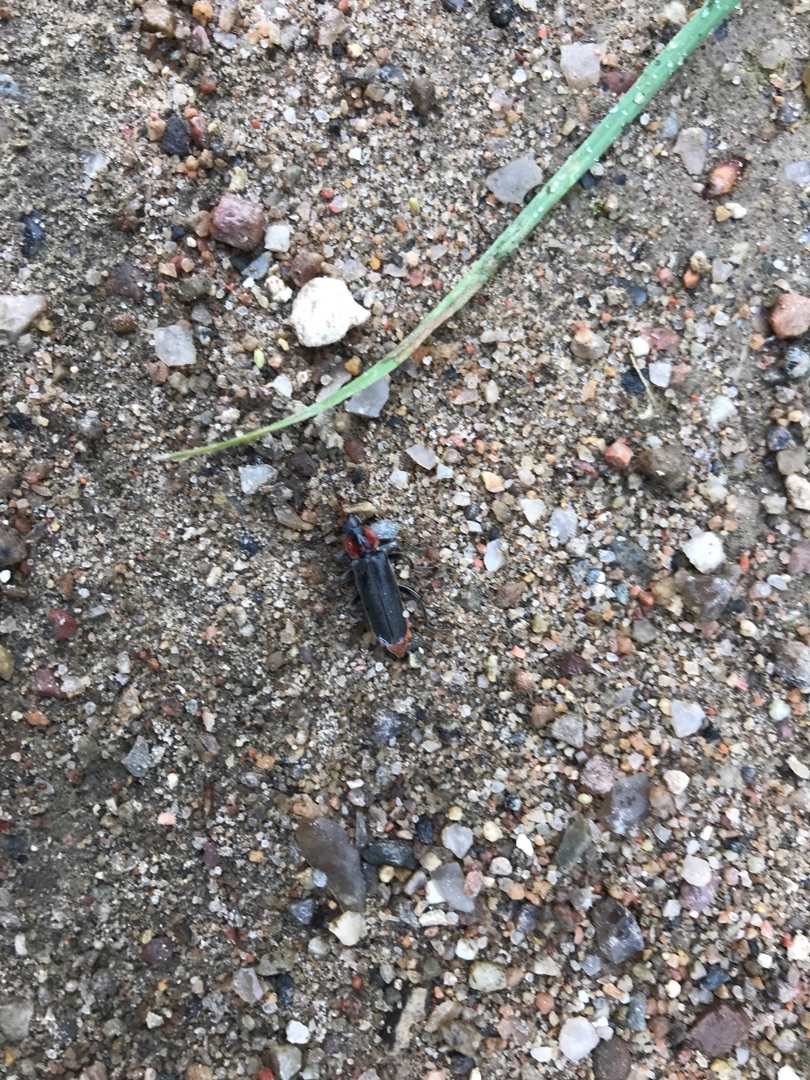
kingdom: Animalia
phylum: Arthropoda
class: Insecta
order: Coleoptera
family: Cantharidae
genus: Cantharis
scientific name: Cantharis fusca
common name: Stor blødvinge
